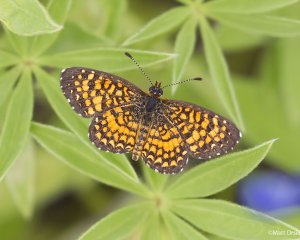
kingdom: Animalia
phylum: Arthropoda
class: Insecta
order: Lepidoptera
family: Nymphalidae
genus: Texola
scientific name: Texola elada
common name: Elada Checkerspot
